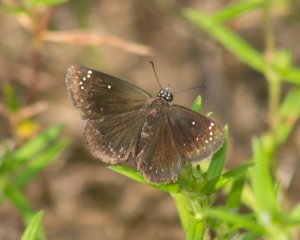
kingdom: Animalia
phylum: Arthropoda
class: Insecta
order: Lepidoptera
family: Hesperiidae
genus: Pholisora
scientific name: Pholisora catullus
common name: Common Sootywing
